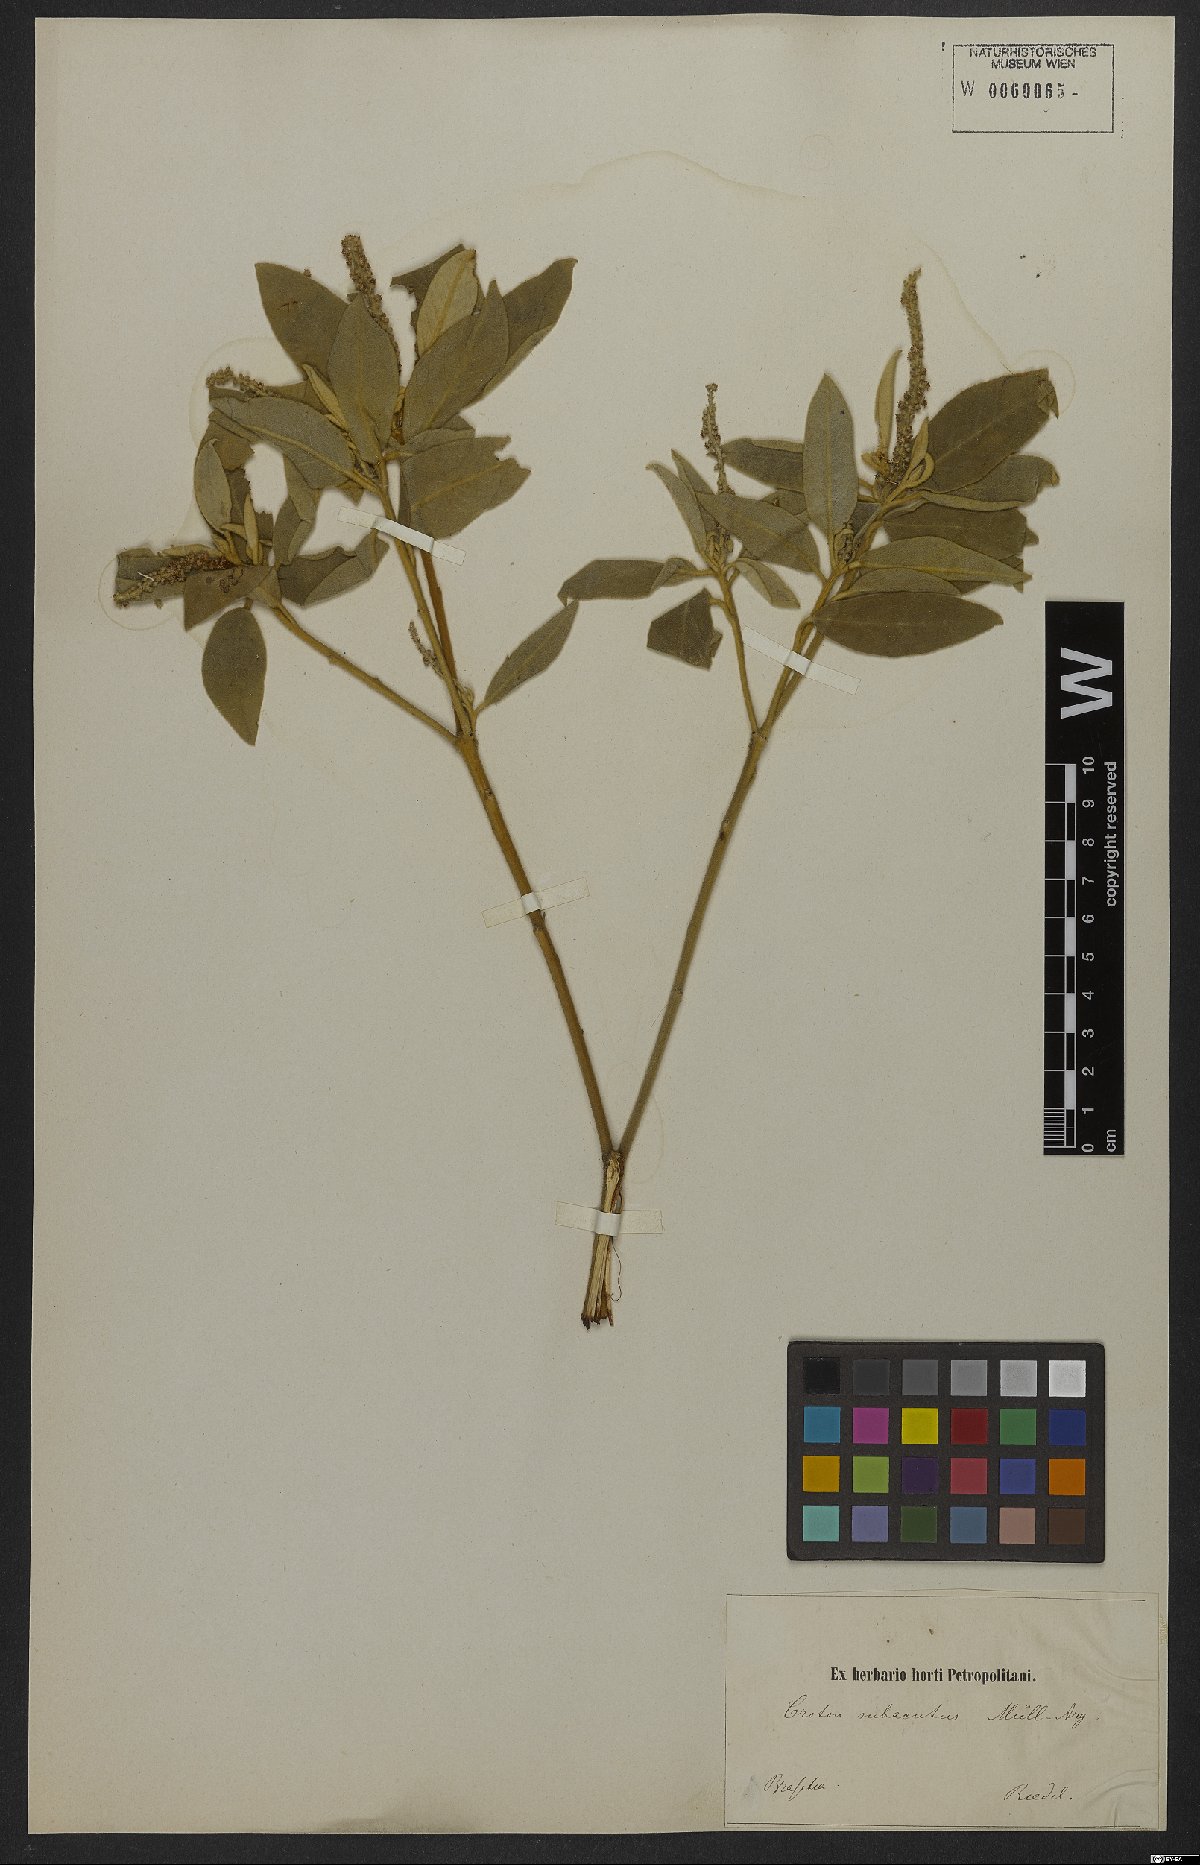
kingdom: Plantae
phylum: Tracheophyta
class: Magnoliopsida
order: Malpighiales
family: Euphorbiaceae
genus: Croton
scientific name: Croton campestris
